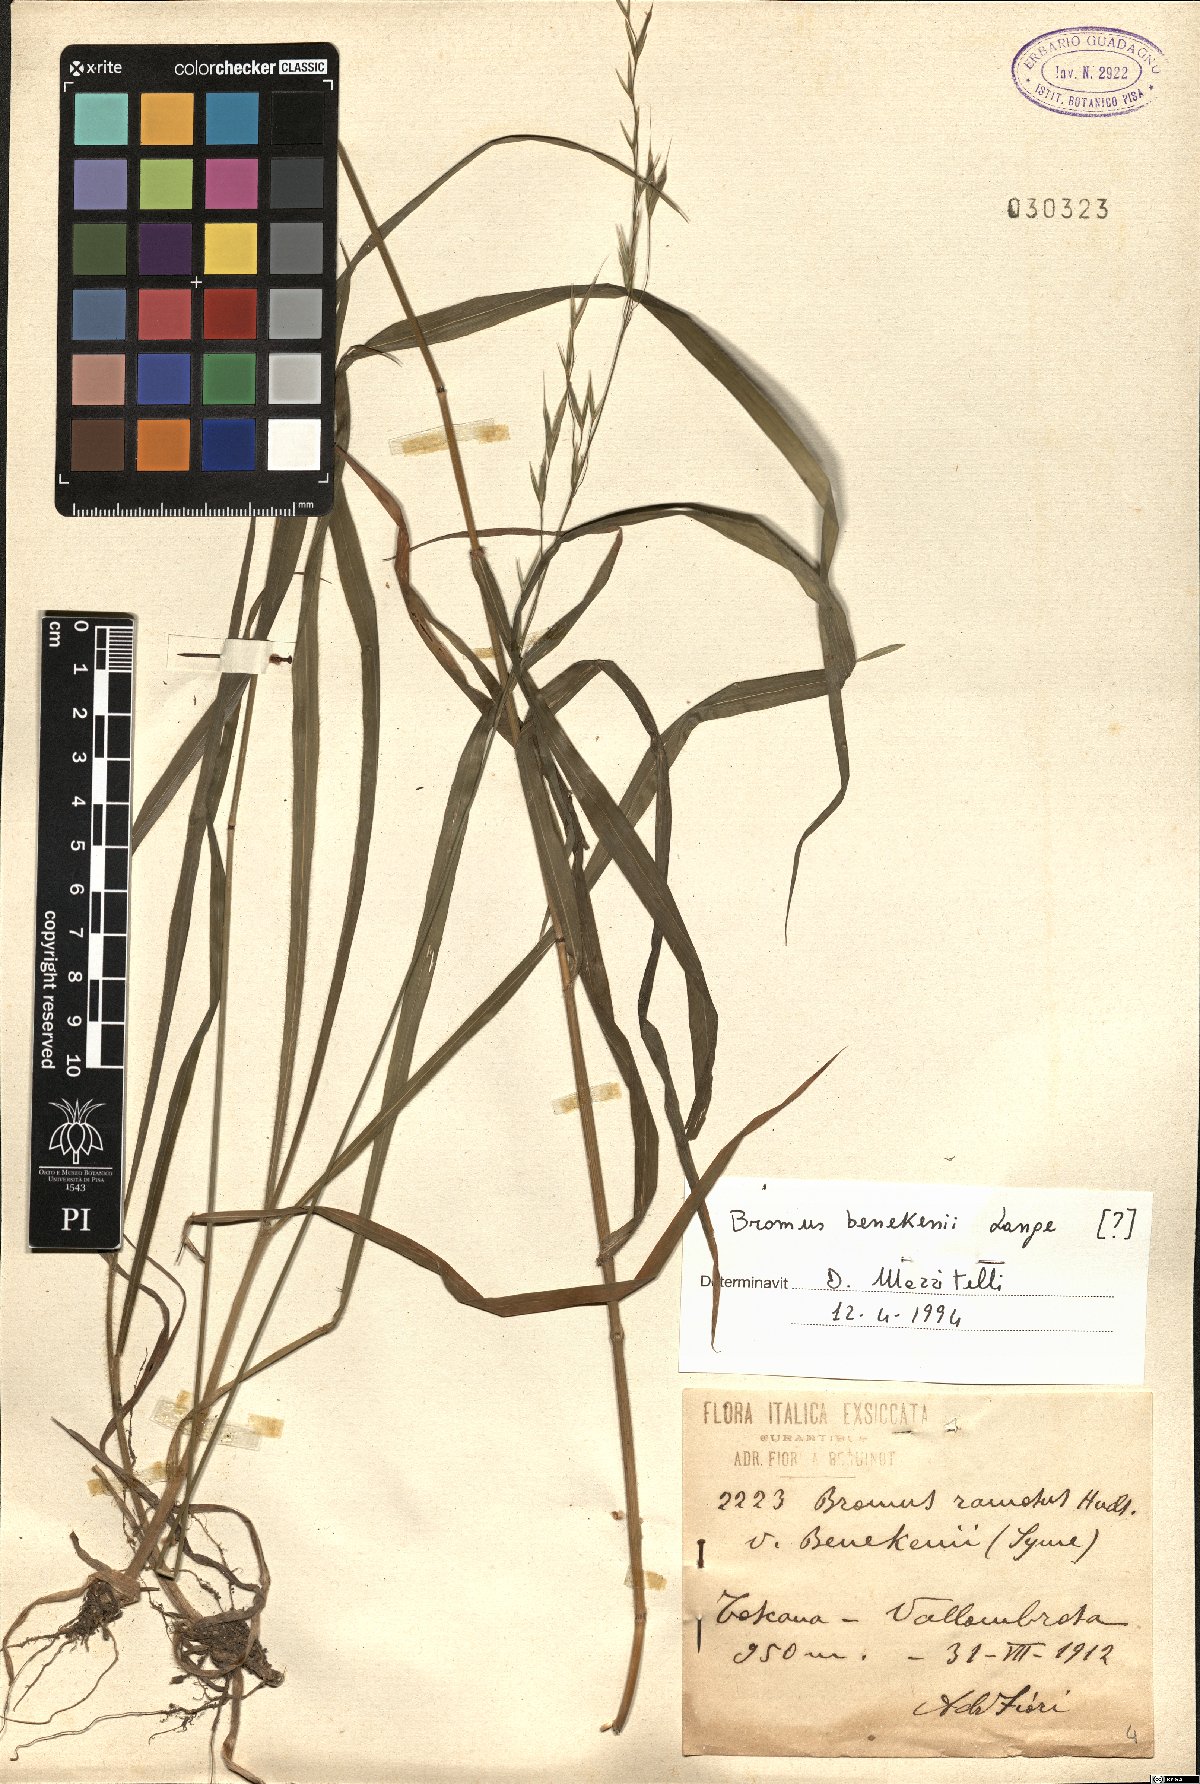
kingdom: Plantae
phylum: Tracheophyta
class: Liliopsida
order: Poales
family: Poaceae
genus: Bromus
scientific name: Bromus benekenii
